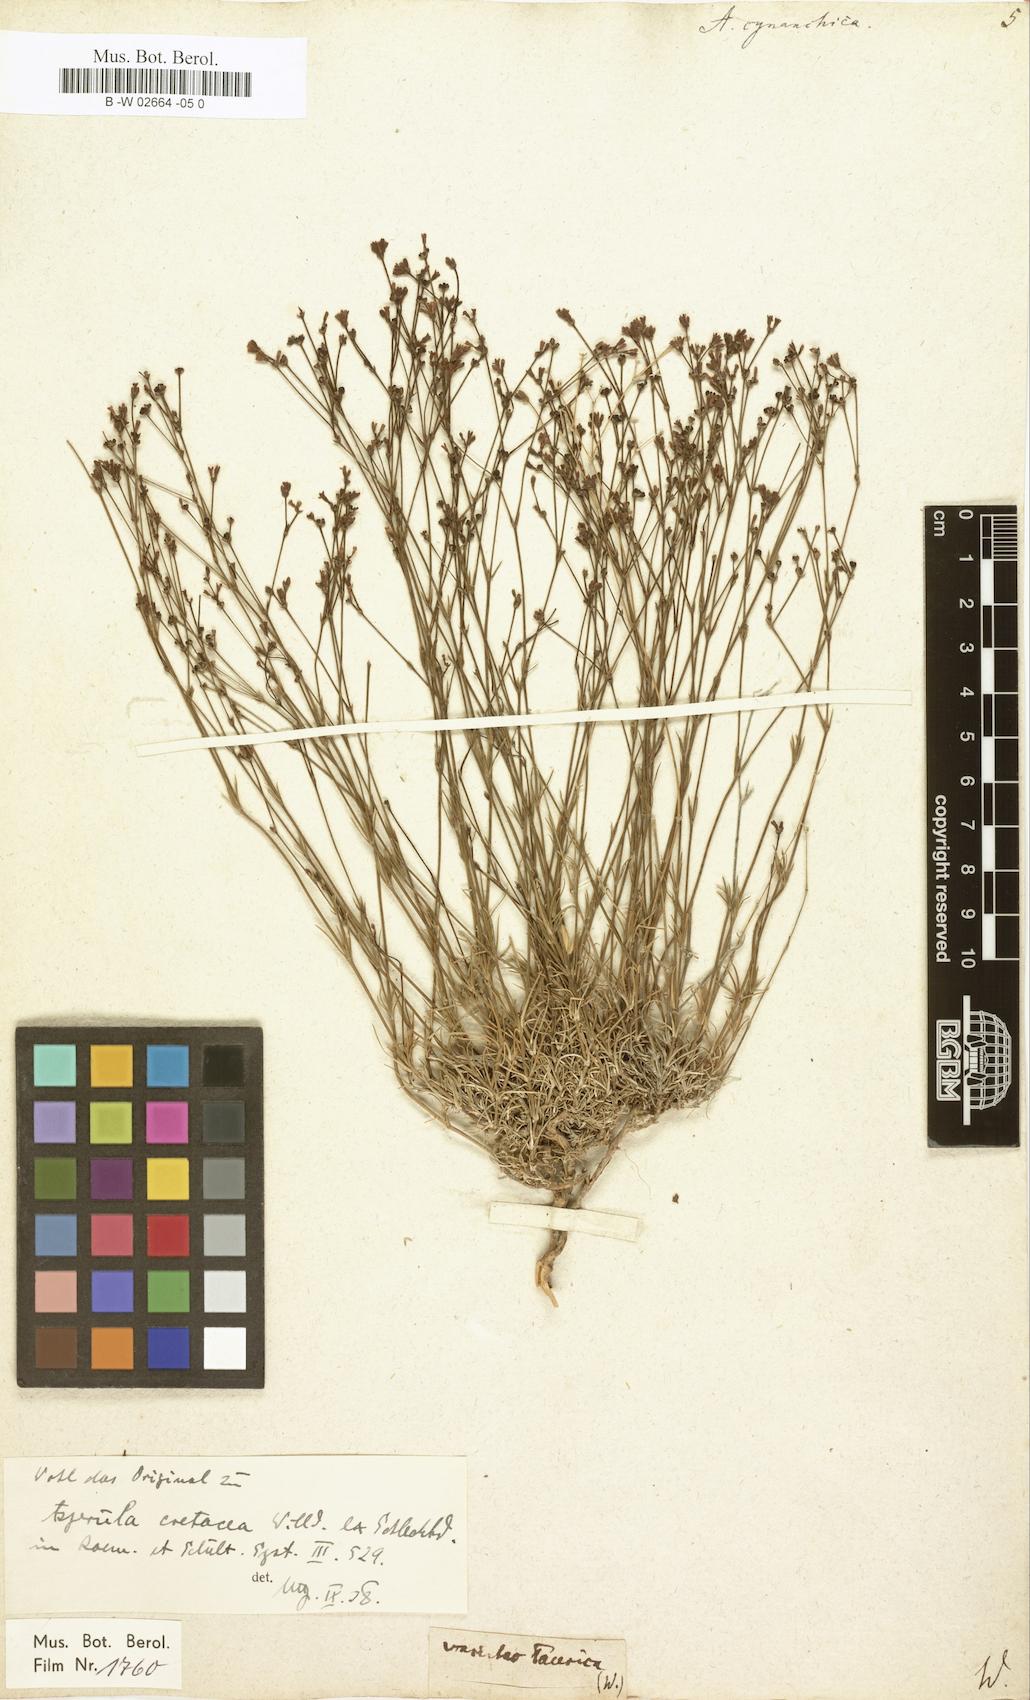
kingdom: Plantae
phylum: Tracheophyta
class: Magnoliopsida
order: Gentianales
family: Rubiaceae
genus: Cynanchica
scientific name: Cynanchica pyrenaica
